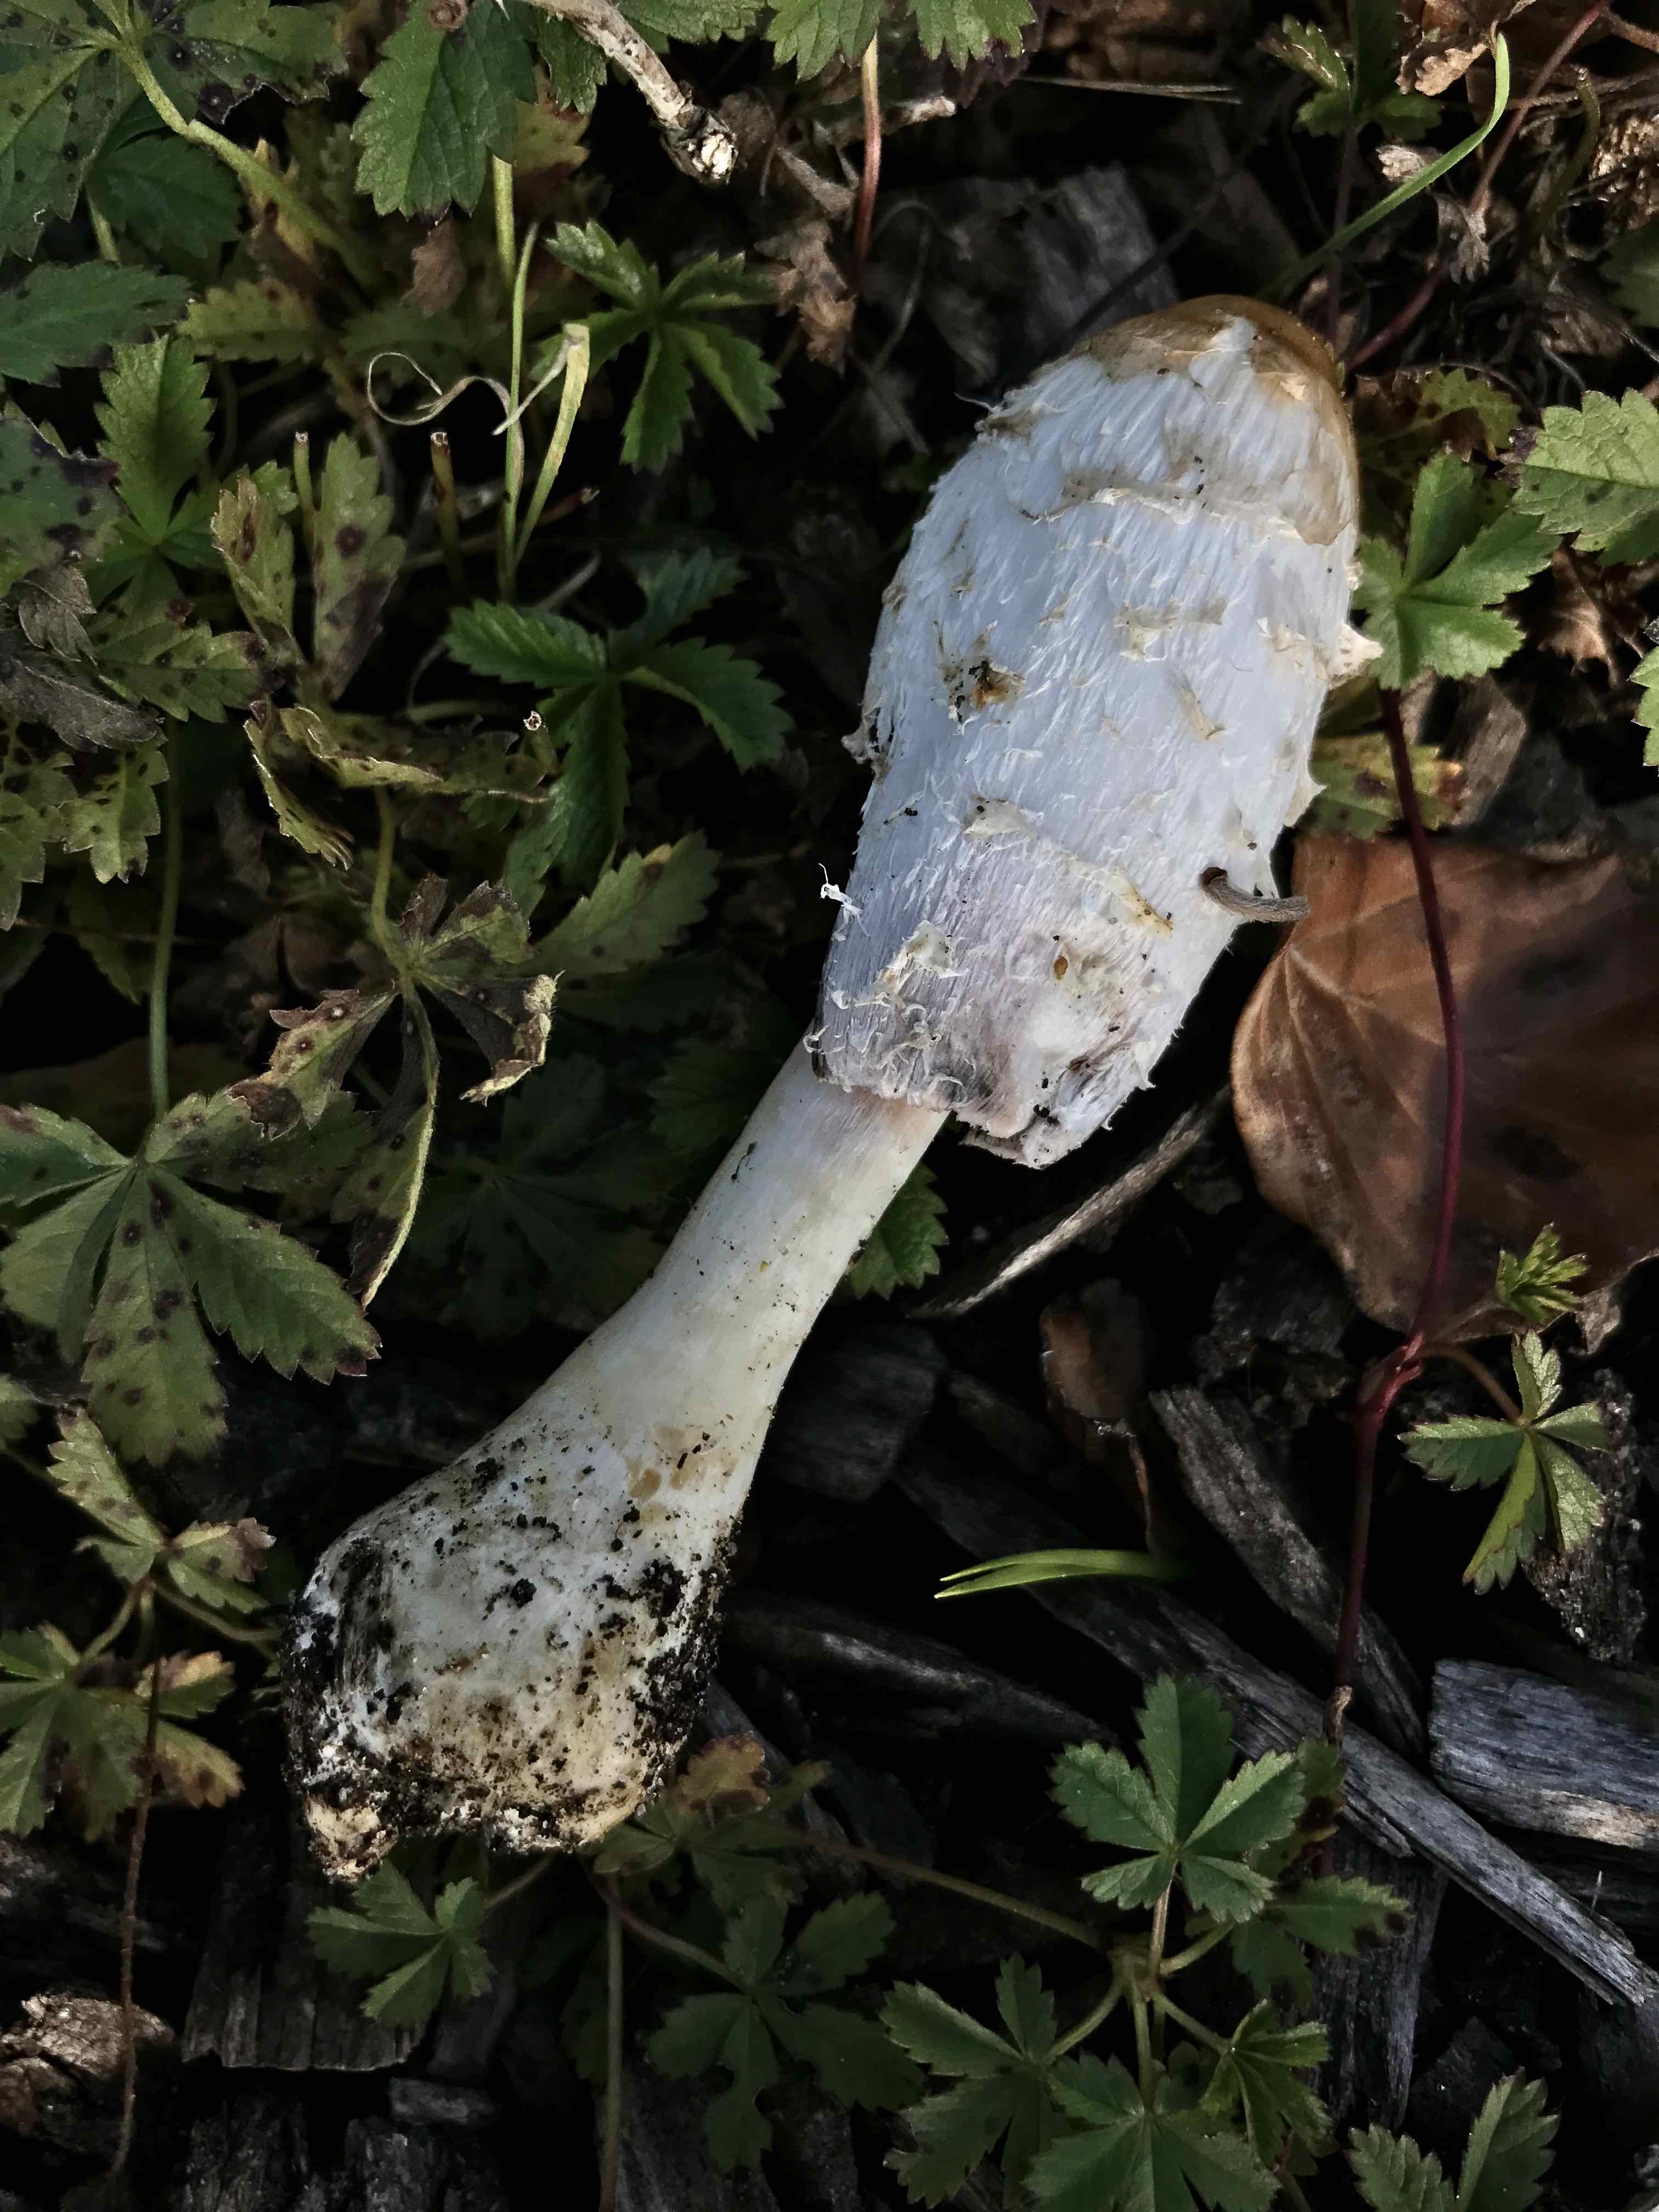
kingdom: Fungi
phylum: Basidiomycota
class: Agaricomycetes
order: Agaricales
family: Agaricaceae
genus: Coprinus
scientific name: Coprinus comatus
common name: stor parykhat
